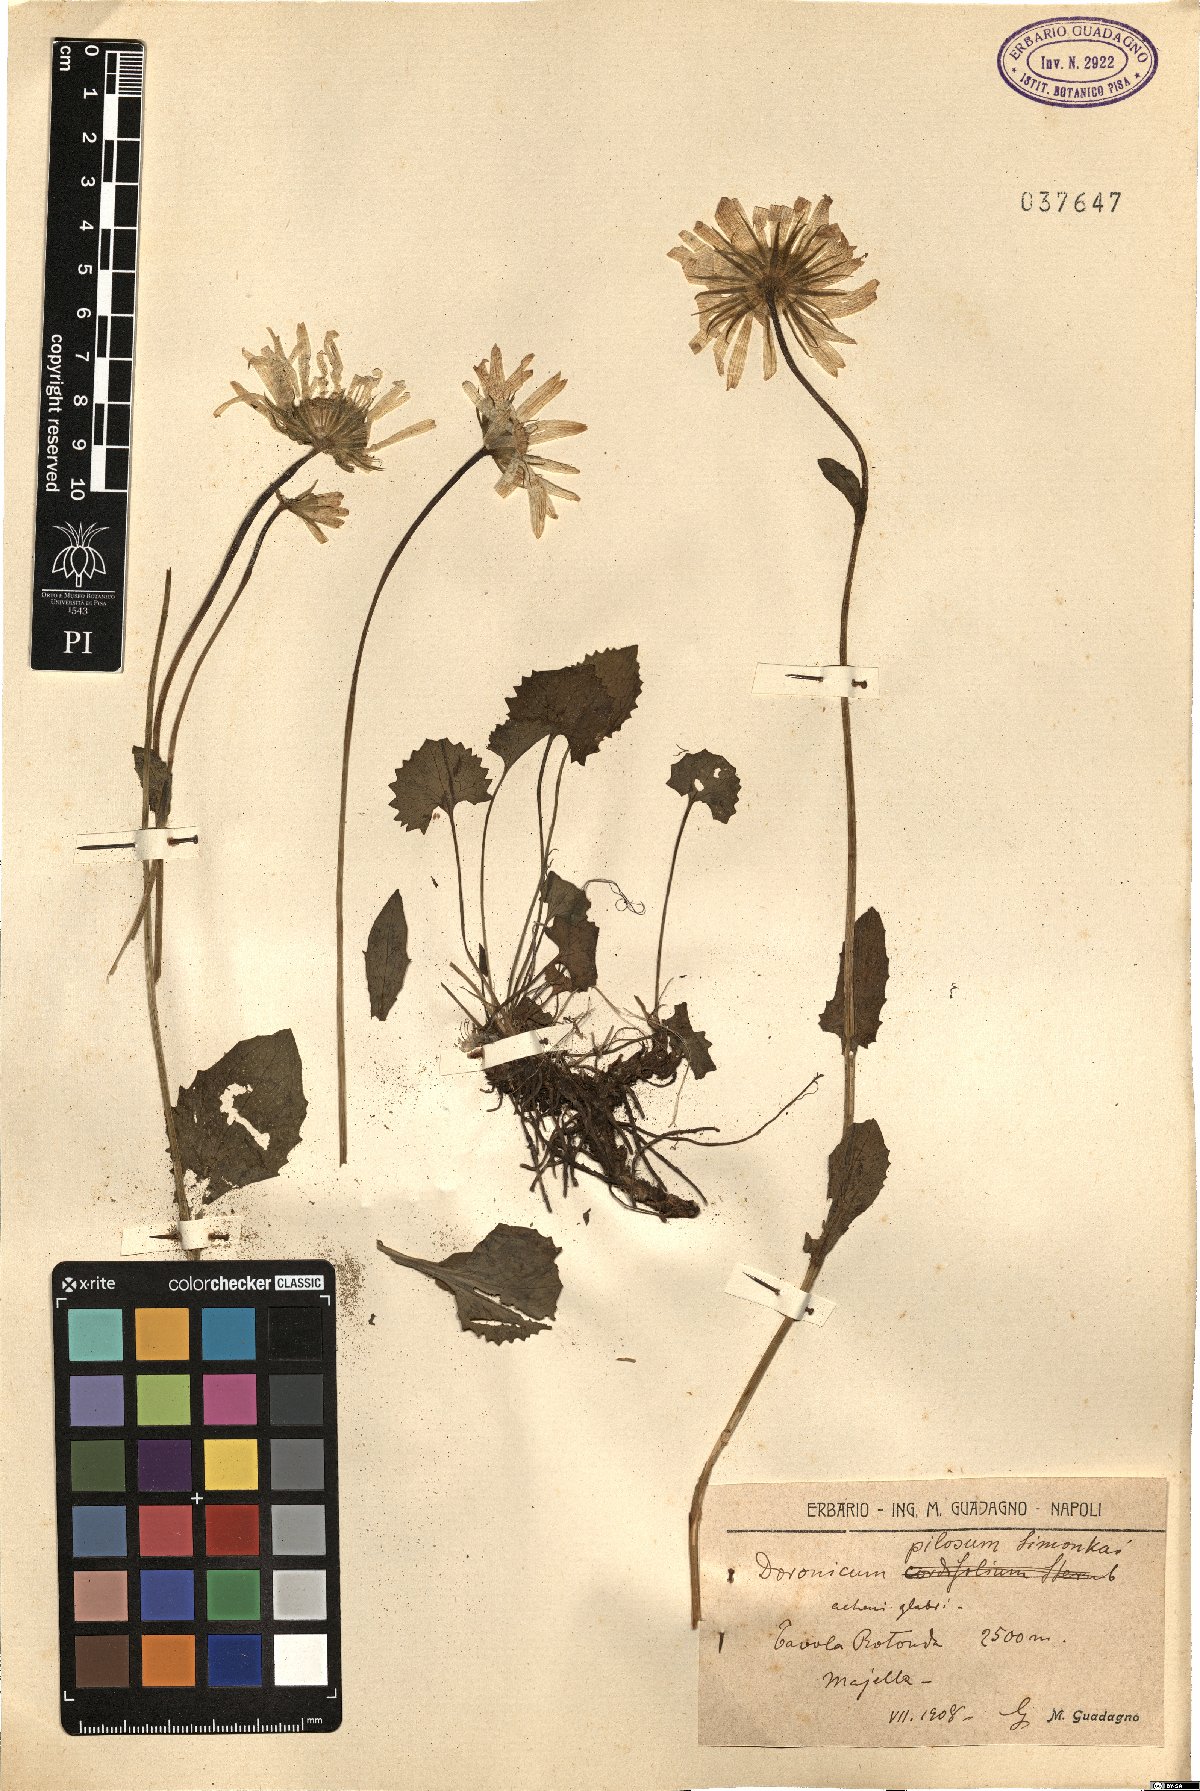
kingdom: Plantae
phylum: Tracheophyta
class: Magnoliopsida
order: Asterales
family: Asteraceae
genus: Doronicum
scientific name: Doronicum columnae
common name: Eastern leopard's-bane
